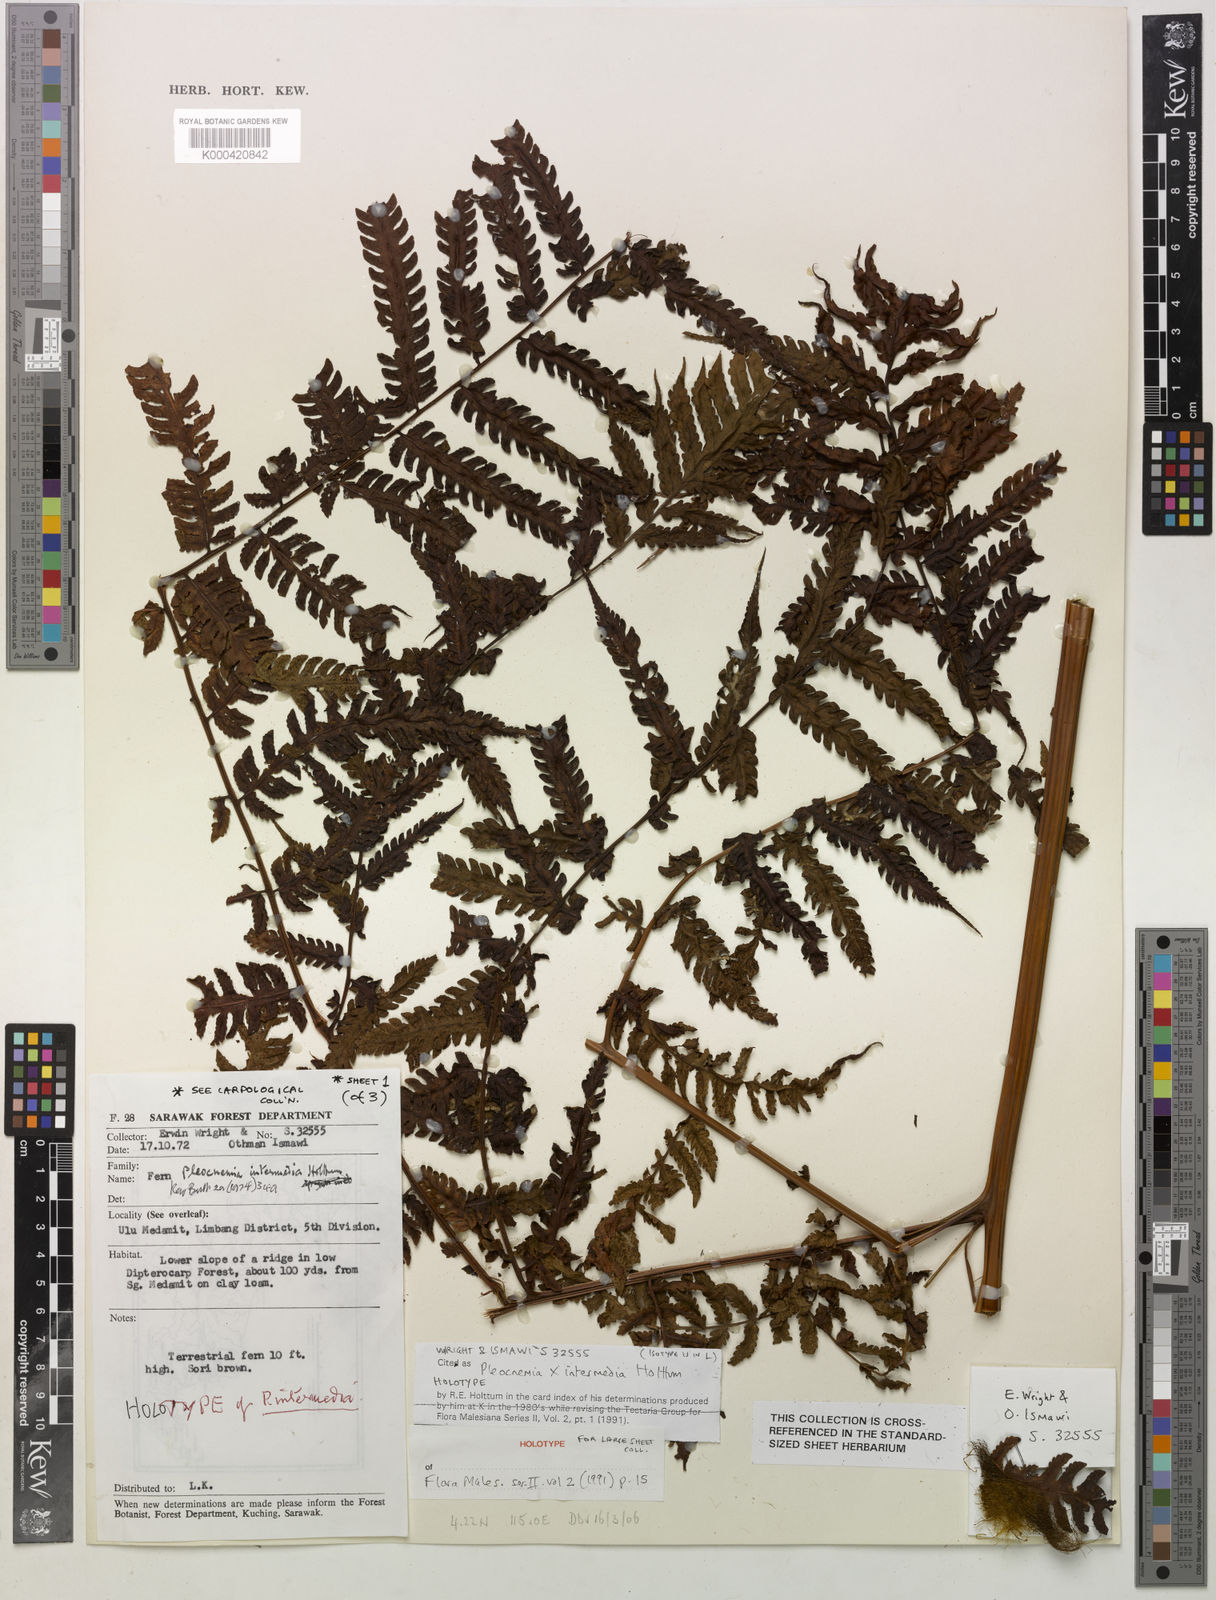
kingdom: Plantae
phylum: Tracheophyta
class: Polypodiopsida
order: Polypodiales
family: Dryopteridaceae
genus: Pleocnemia
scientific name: Pleocnemia intermedia
